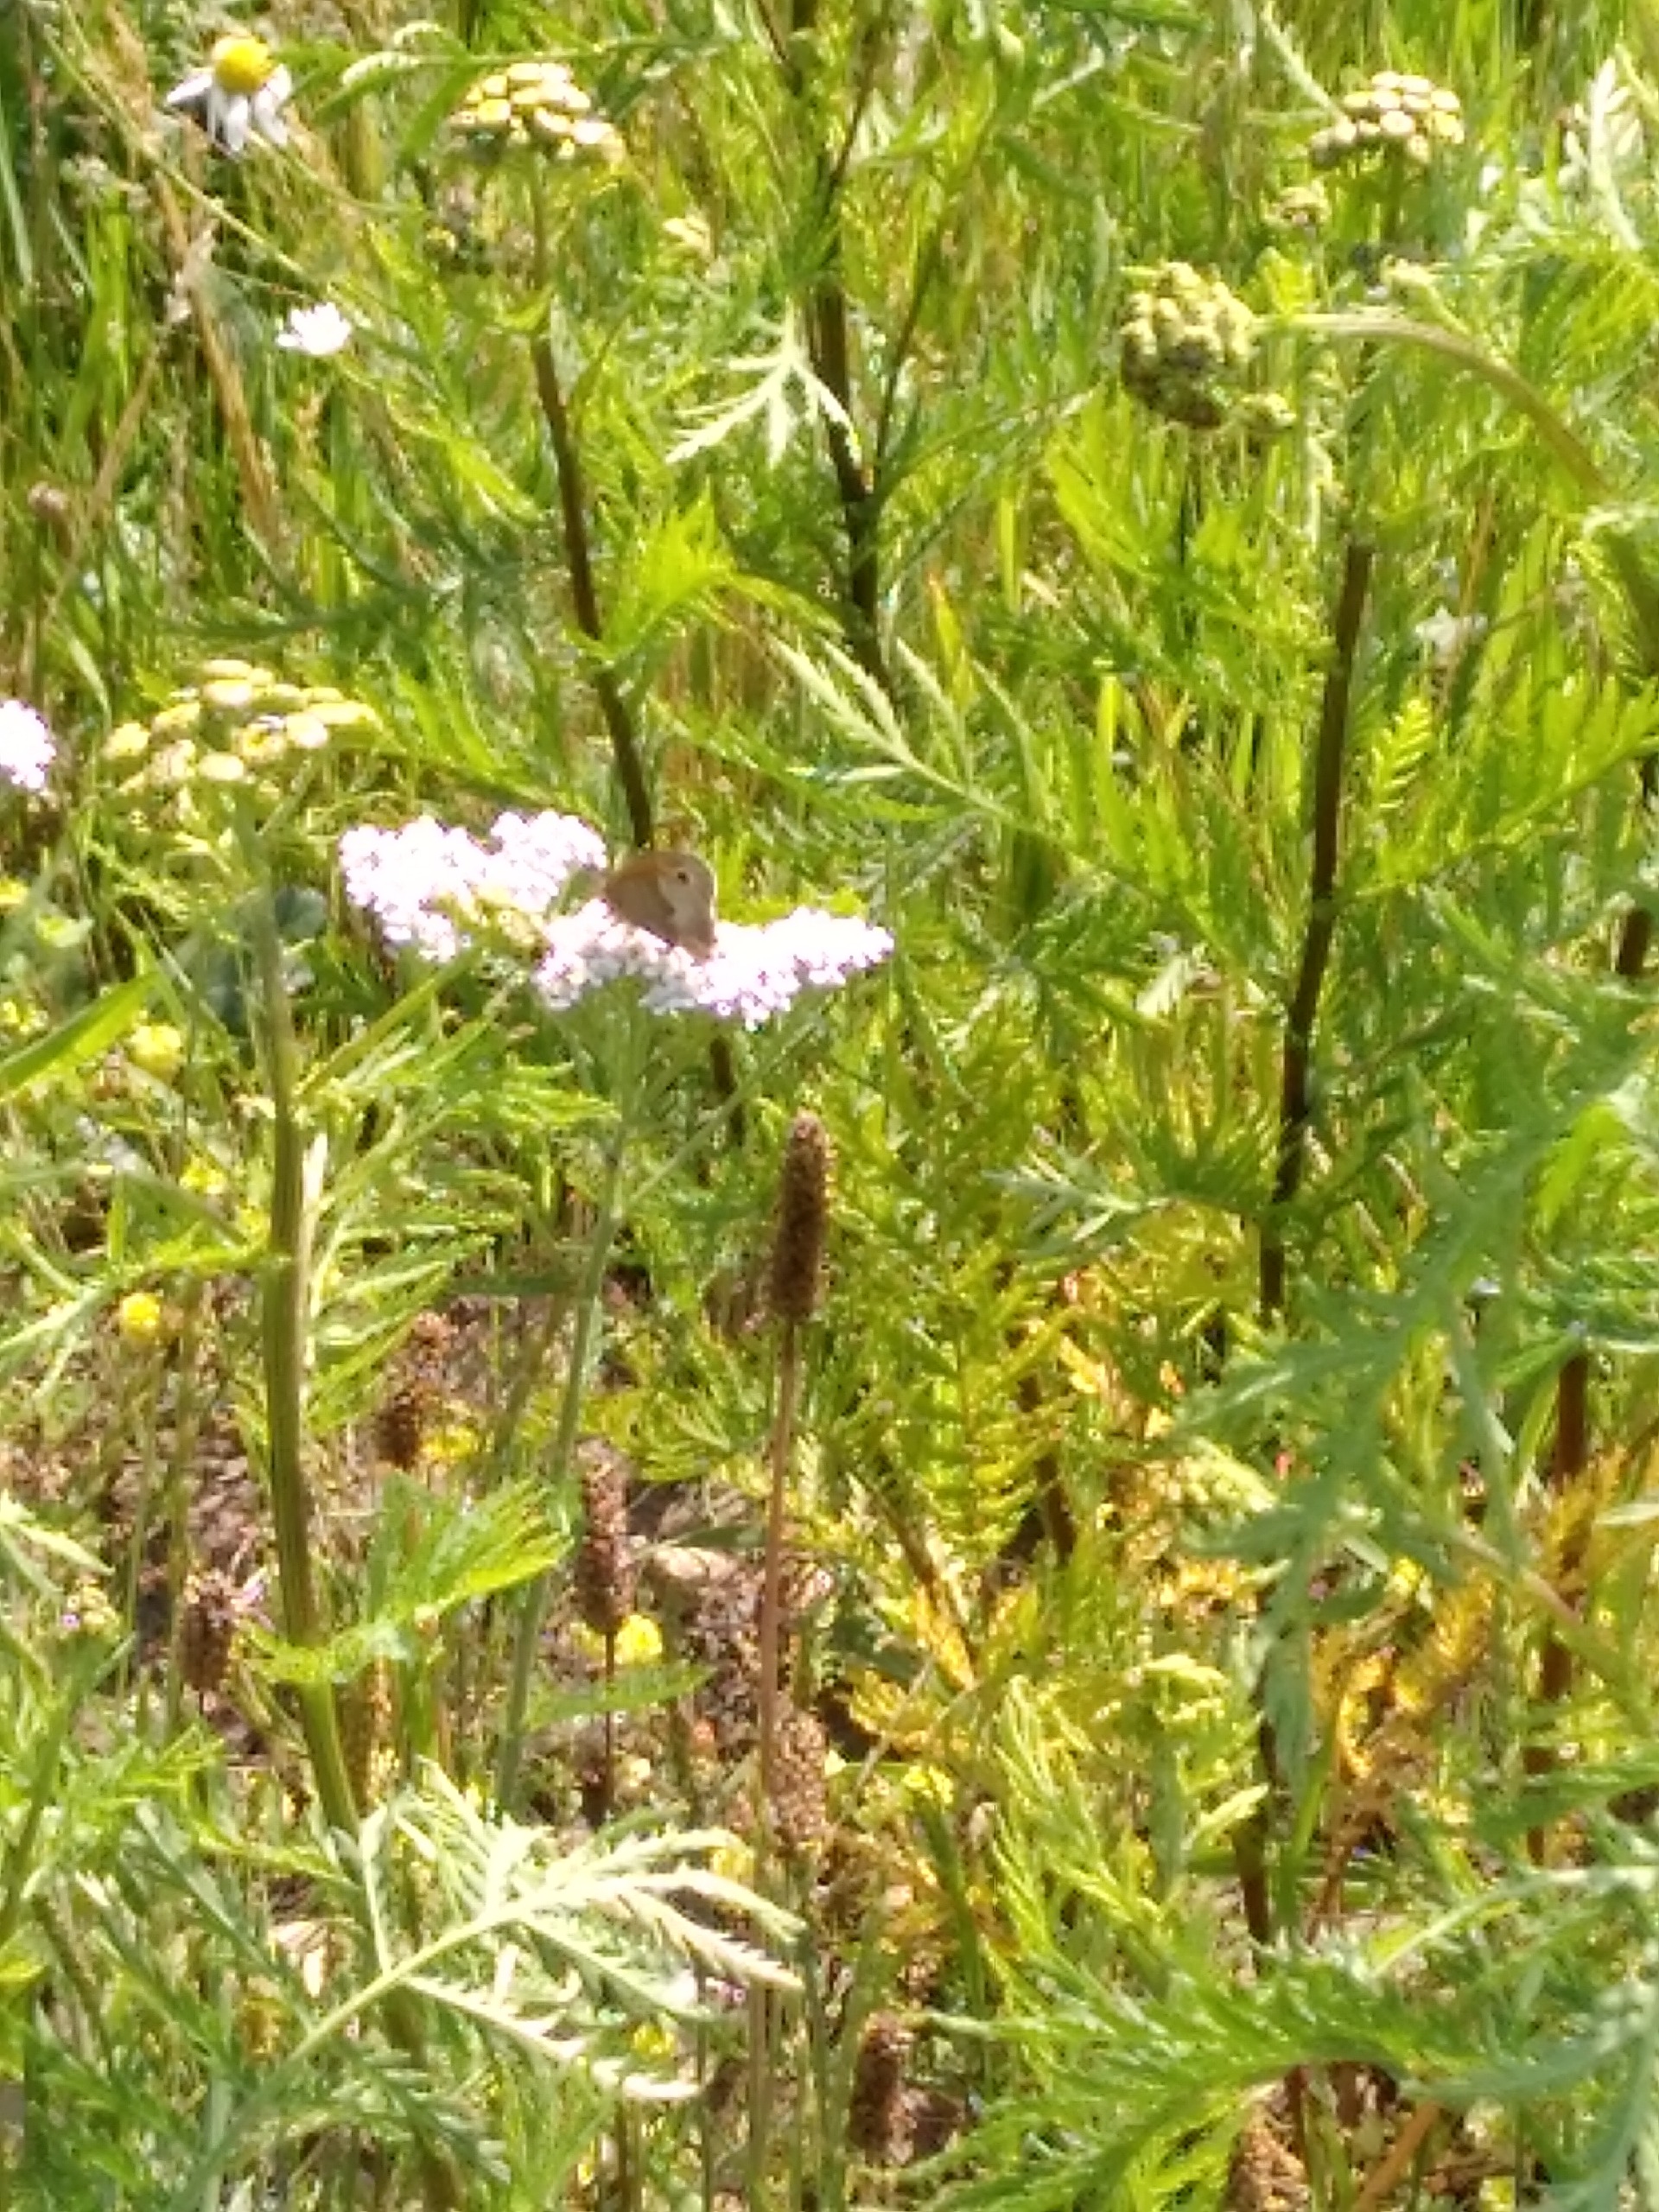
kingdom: Animalia
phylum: Arthropoda
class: Insecta
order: Lepidoptera
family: Nymphalidae
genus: Maniola
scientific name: Maniola jurtina
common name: Græsrandøje
